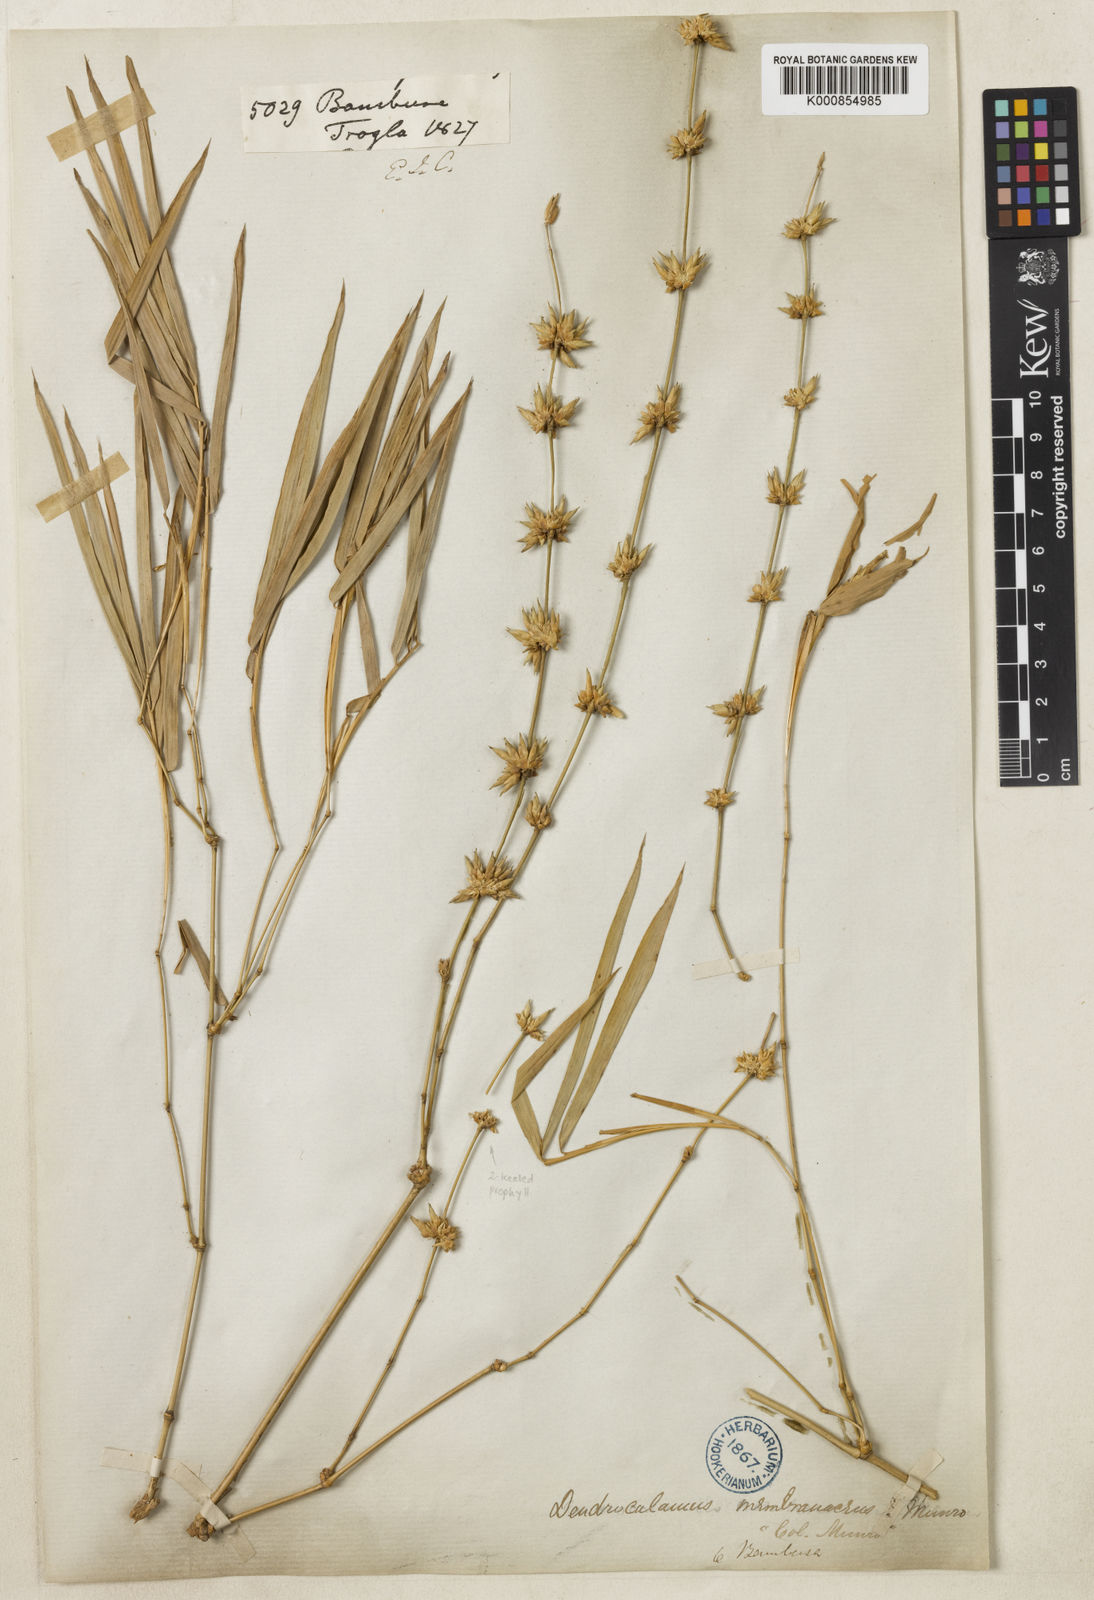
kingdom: Plantae
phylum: Tracheophyta
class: Liliopsida
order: Poales
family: Poaceae
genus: Dendrocalamus
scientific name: Dendrocalamus membranaceus
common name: White bamboo
